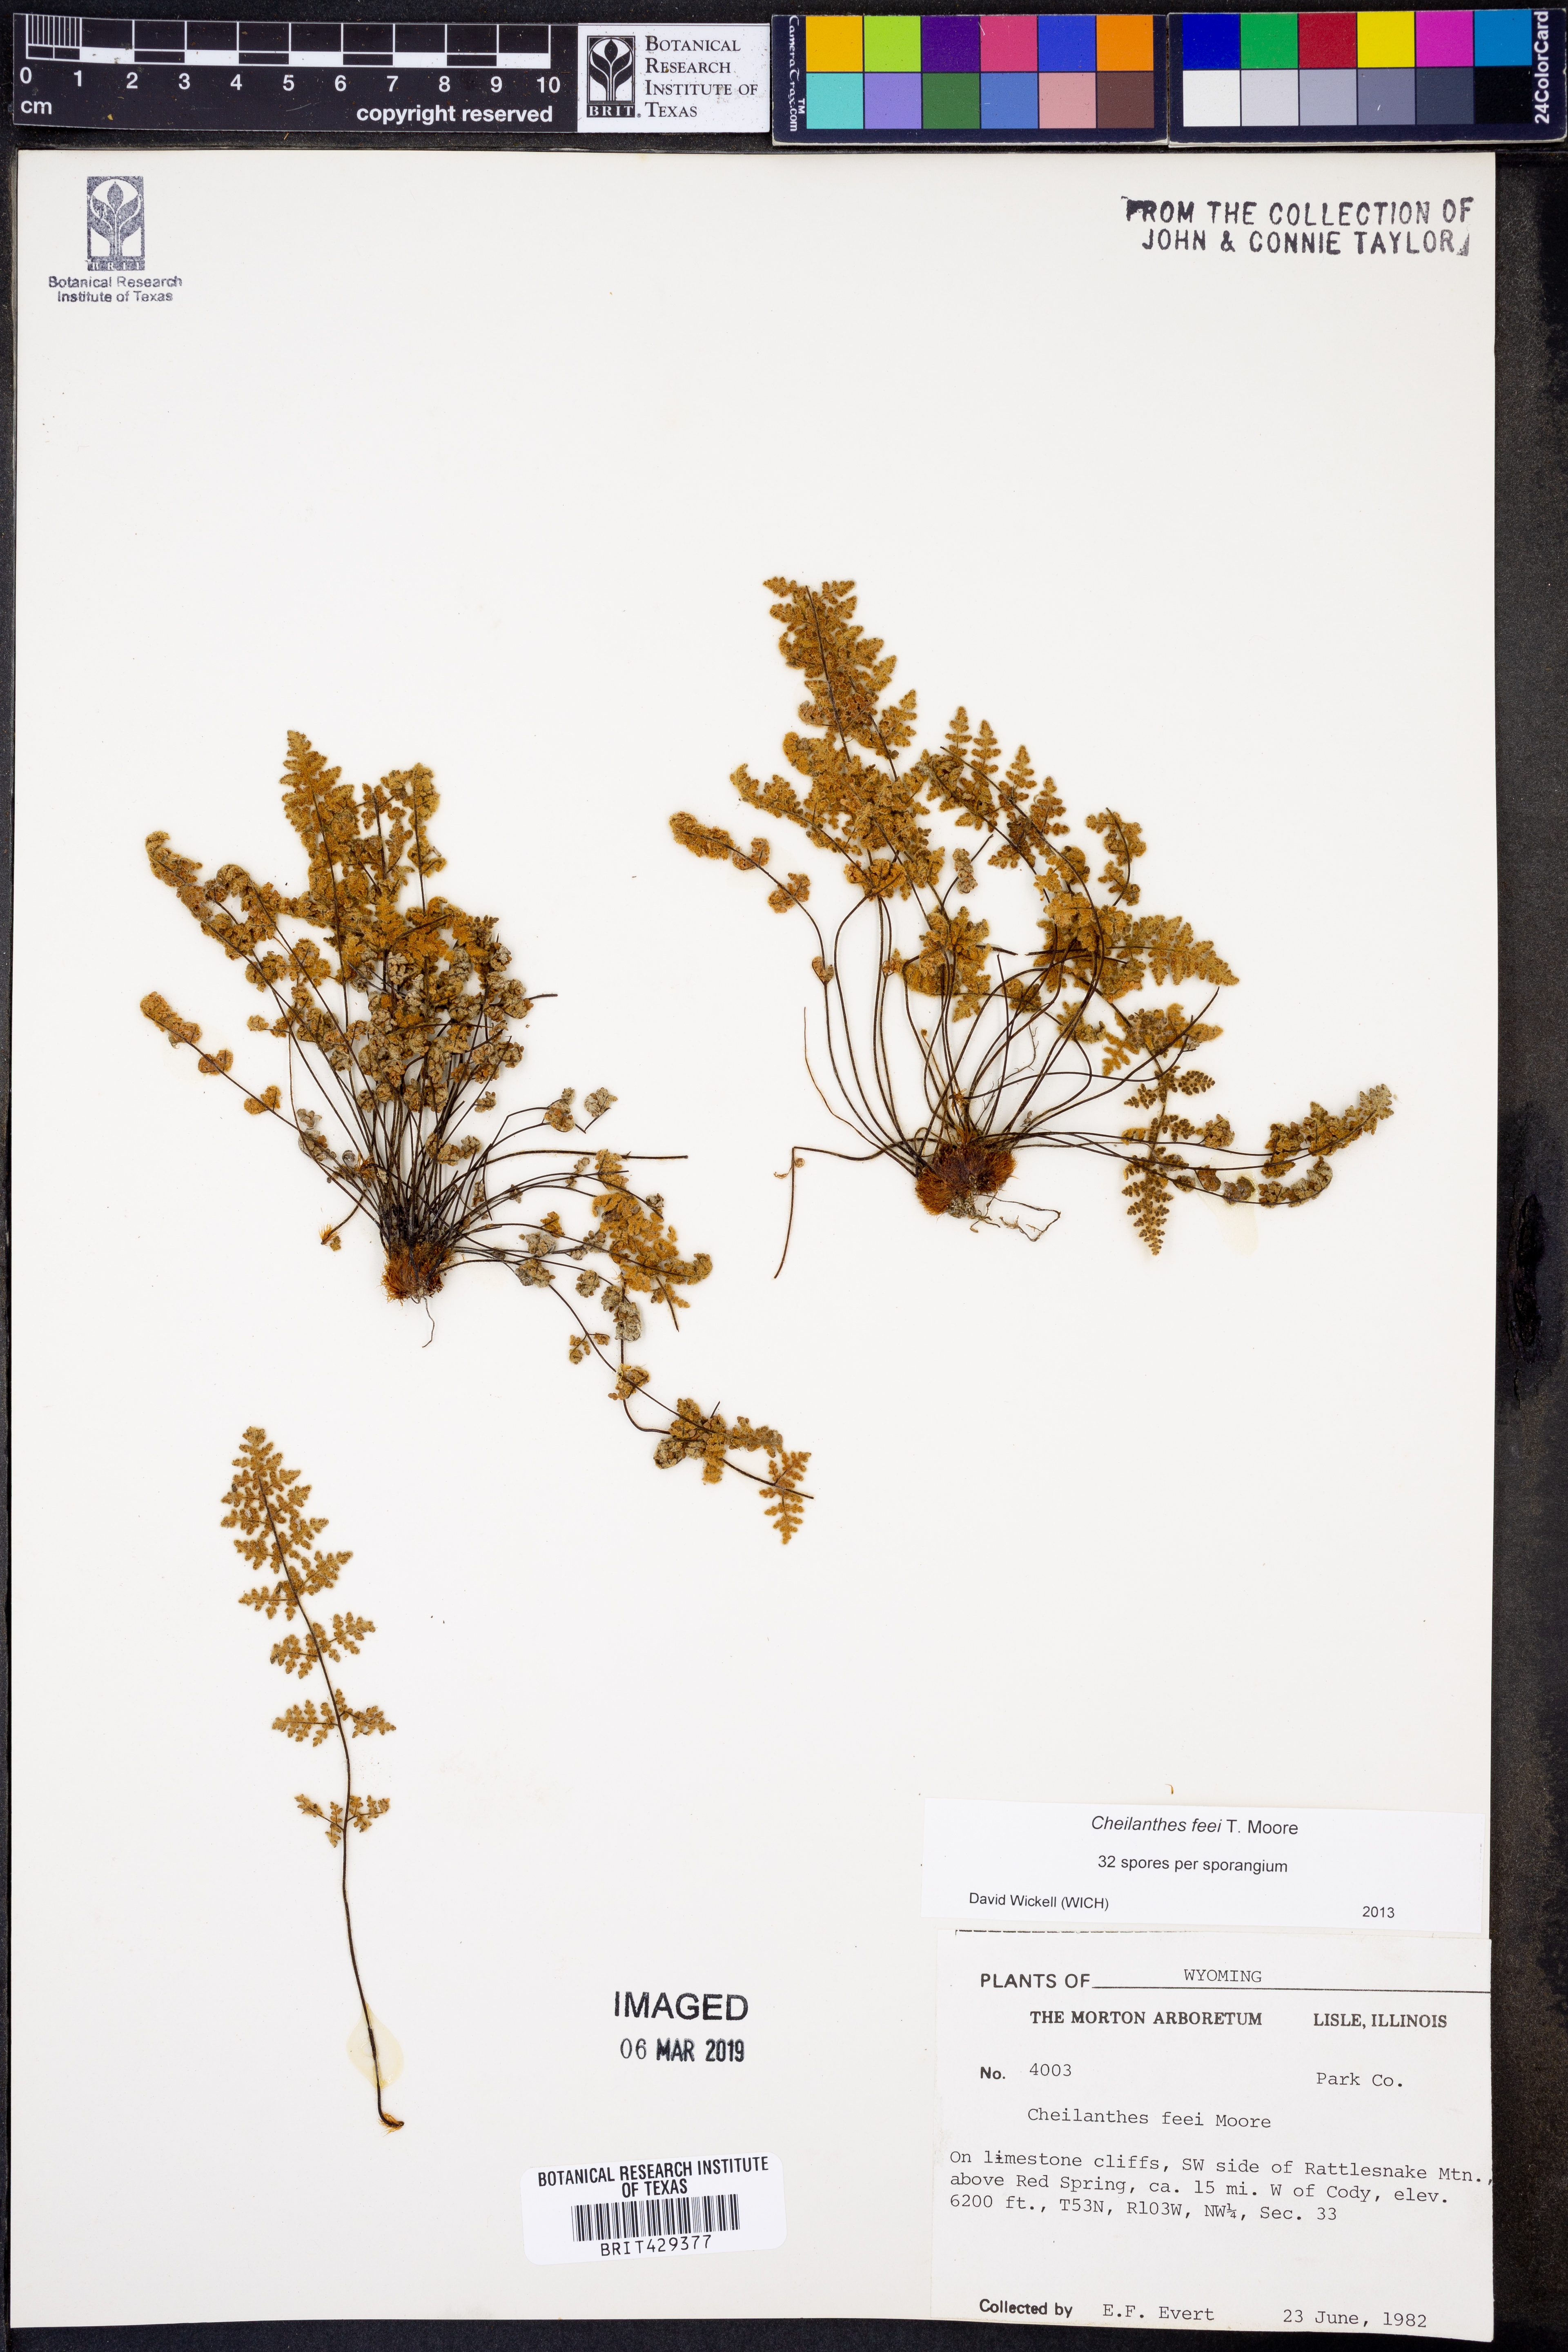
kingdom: Plantae
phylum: Tracheophyta
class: Polypodiopsida
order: Polypodiales
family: Pteridaceae
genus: Myriopteris
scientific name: Myriopteris gracilis
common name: Fee's lip fern
